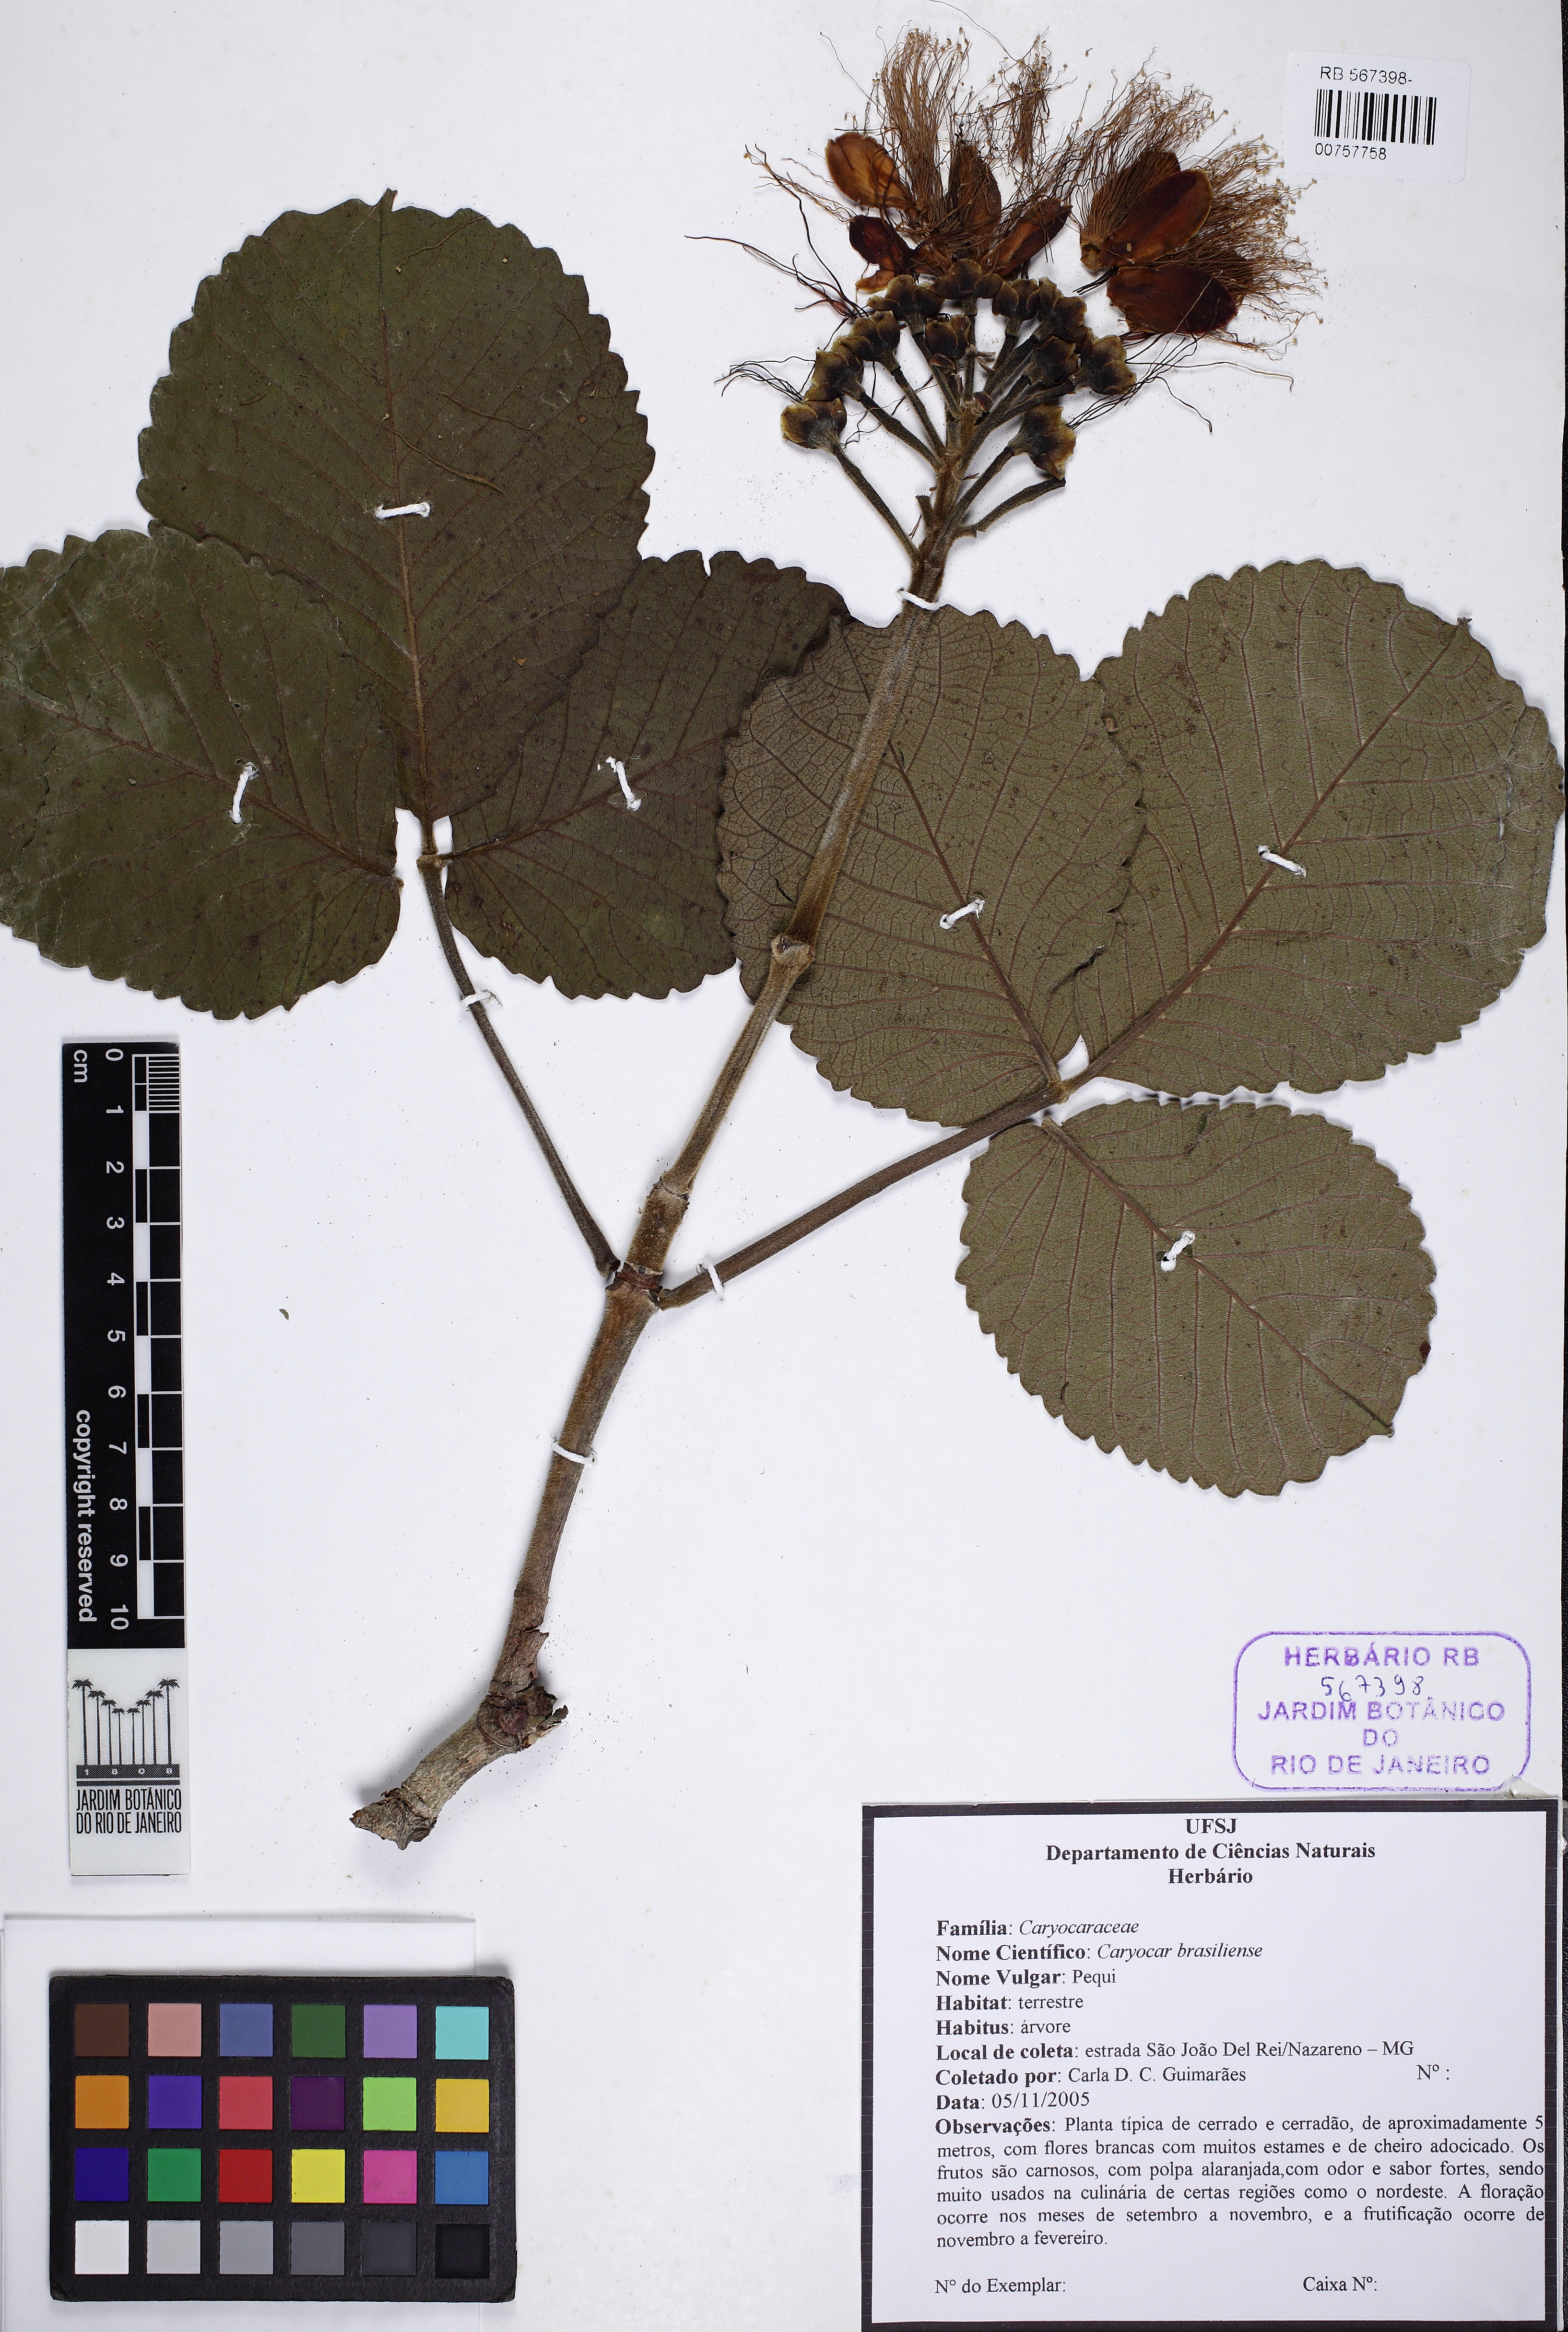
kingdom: Plantae
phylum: Tracheophyta
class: Magnoliopsida
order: Malpighiales
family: Caryocaraceae
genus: Caryocar
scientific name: Caryocar brasiliense
